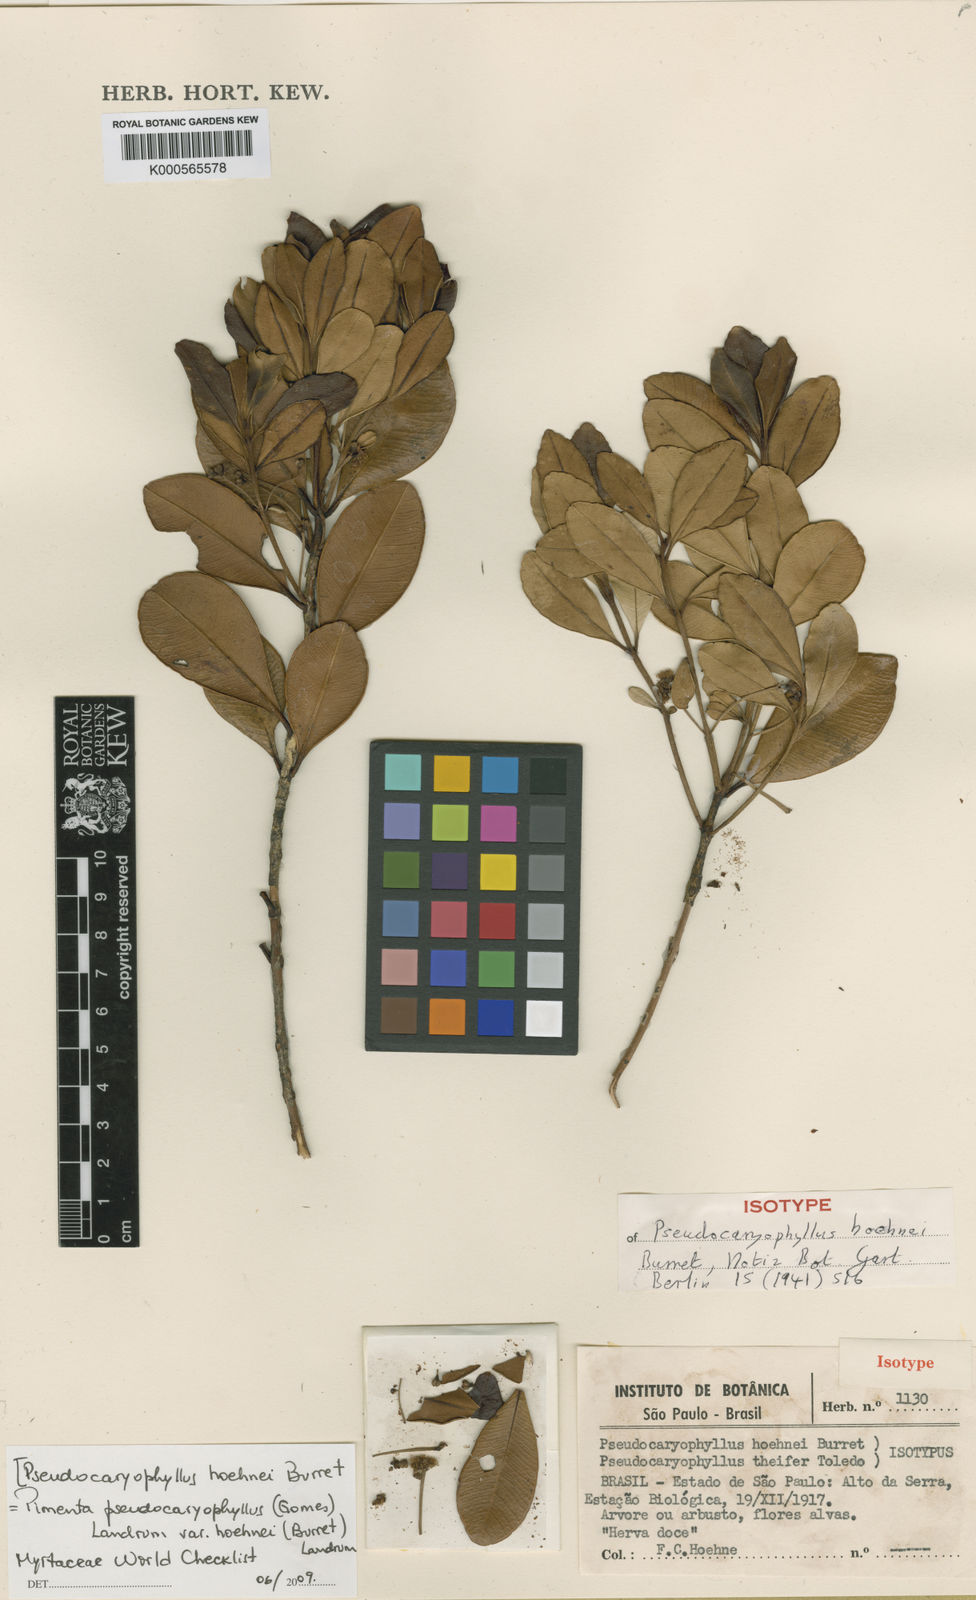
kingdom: Plantae
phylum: Tracheophyta
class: Magnoliopsida
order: Myrtales
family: Myrtaceae
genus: Pimenta
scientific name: Pimenta pseudocaryophyllus
